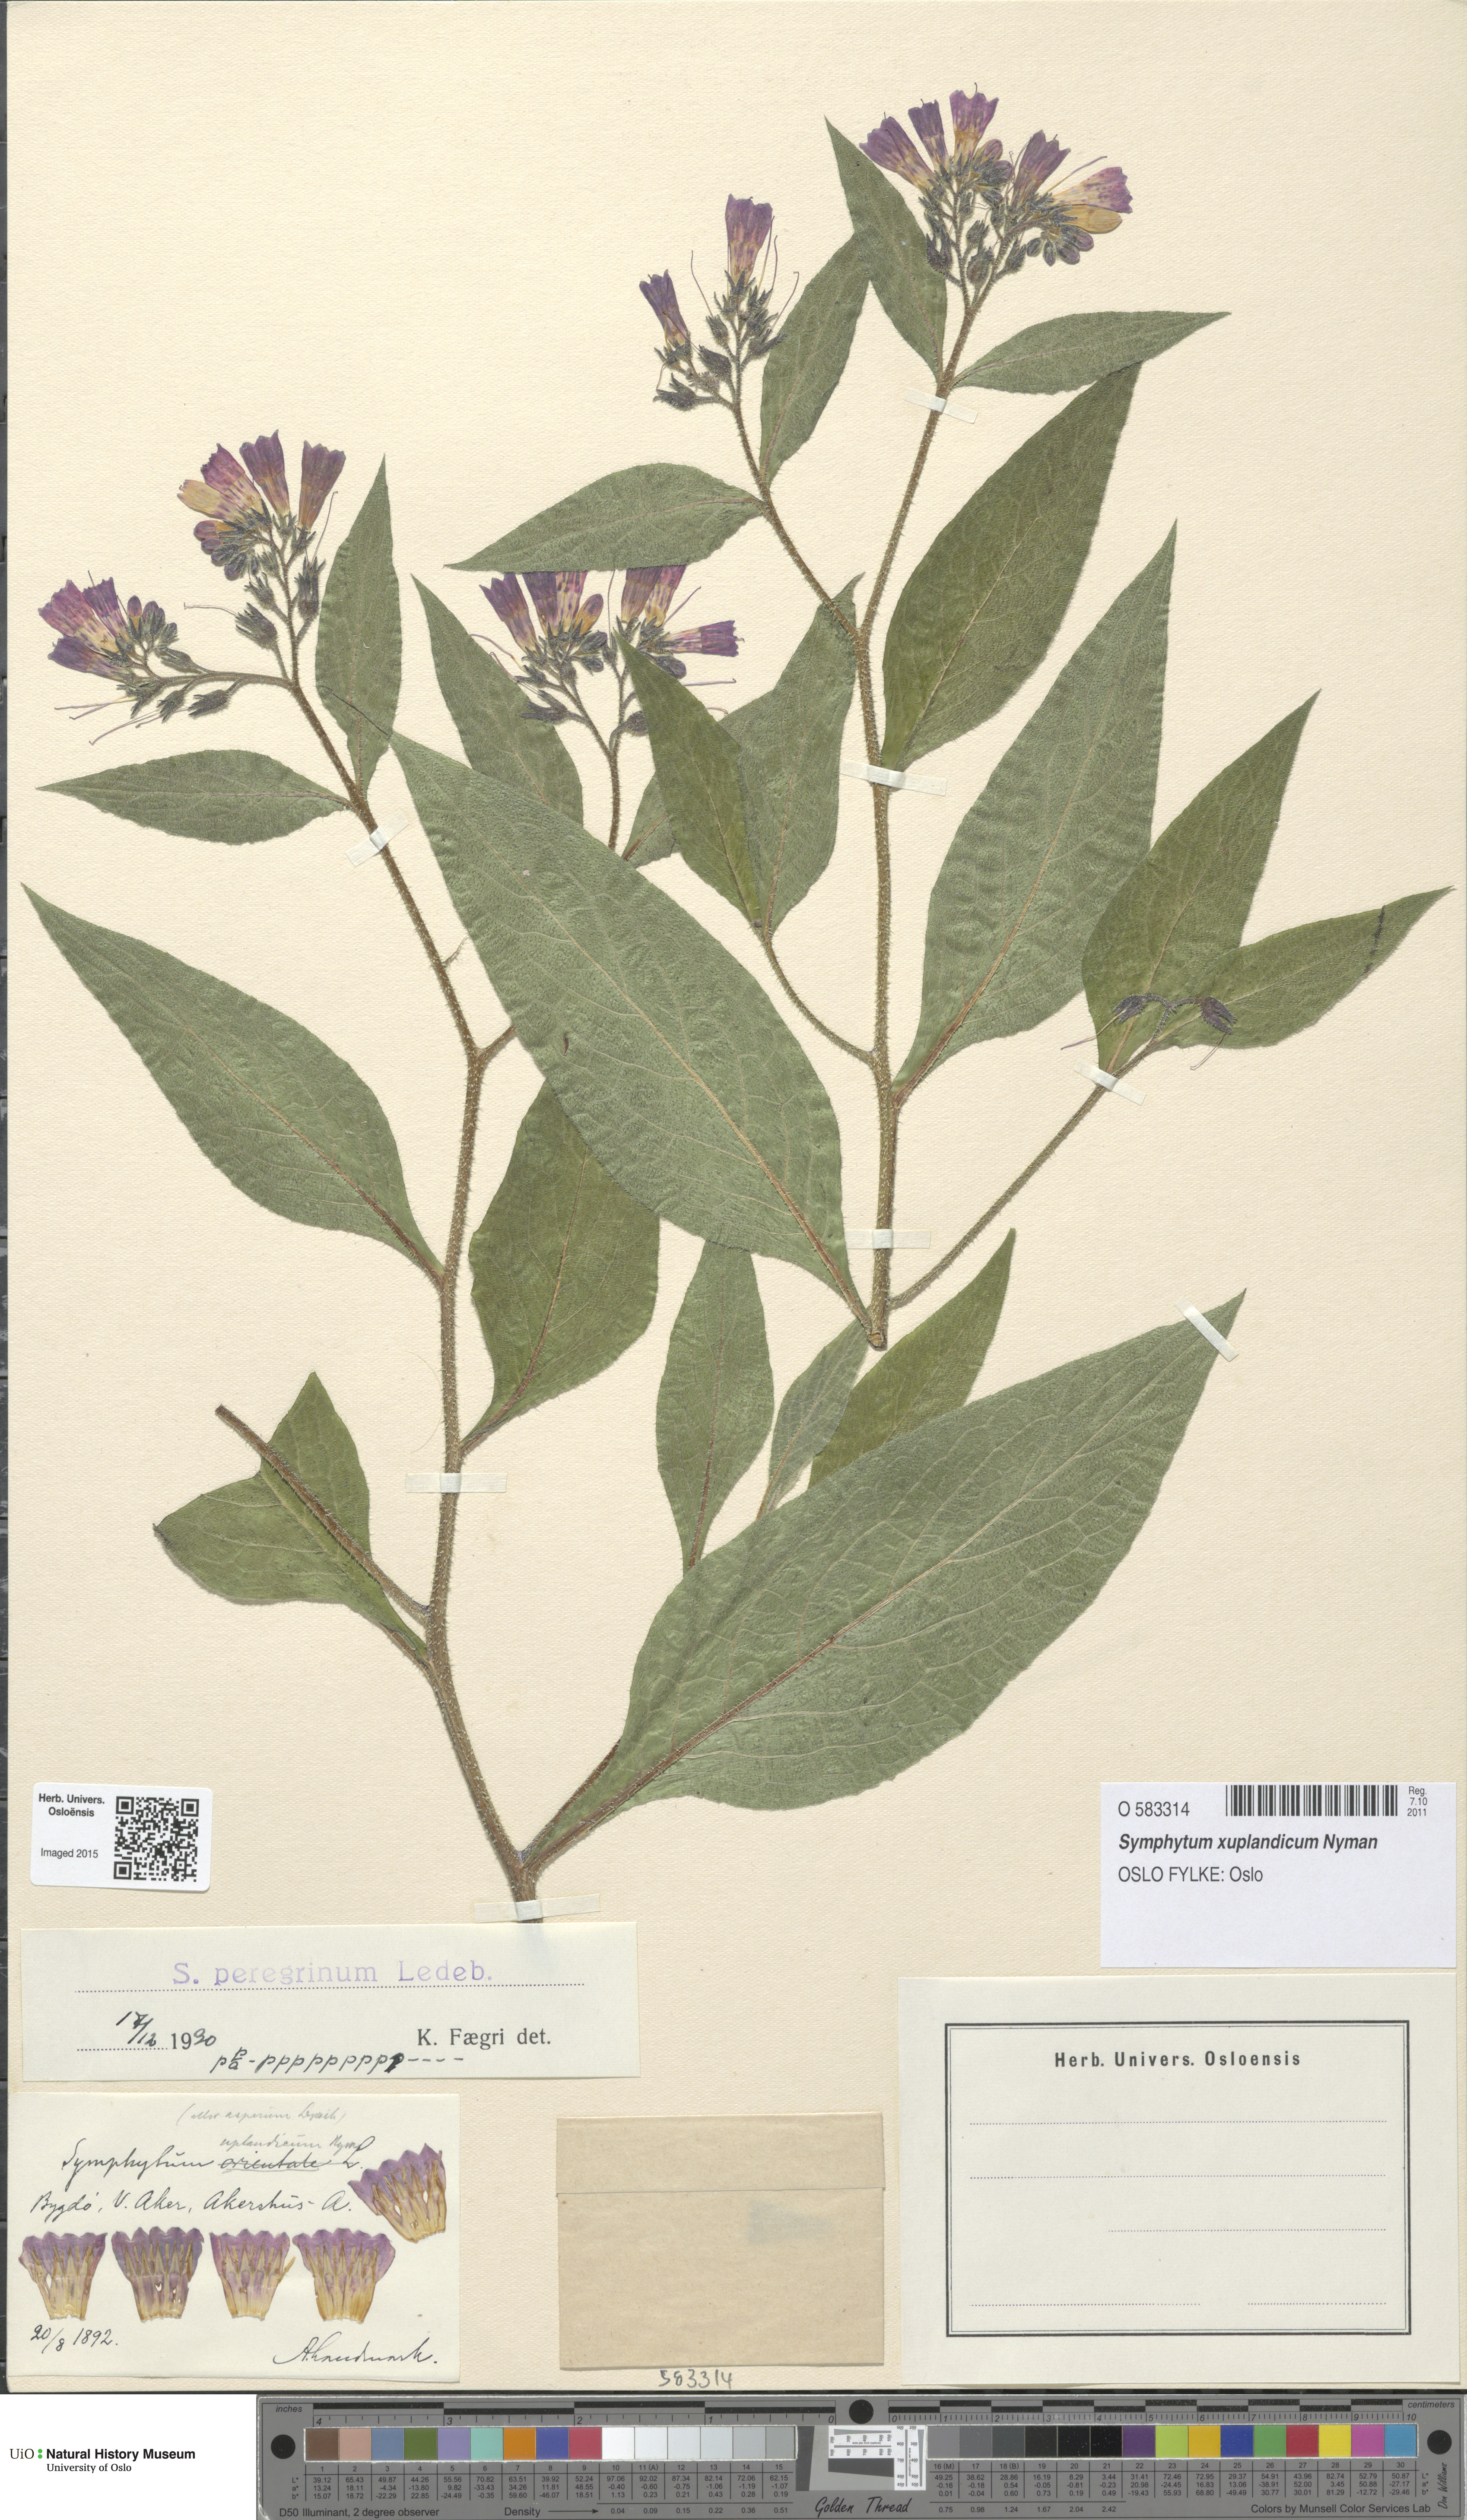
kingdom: Plantae
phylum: Tracheophyta
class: Magnoliopsida
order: Boraginales
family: Boraginaceae
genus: Symphytum
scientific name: Symphytum uplandicum
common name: Russian comfrey
